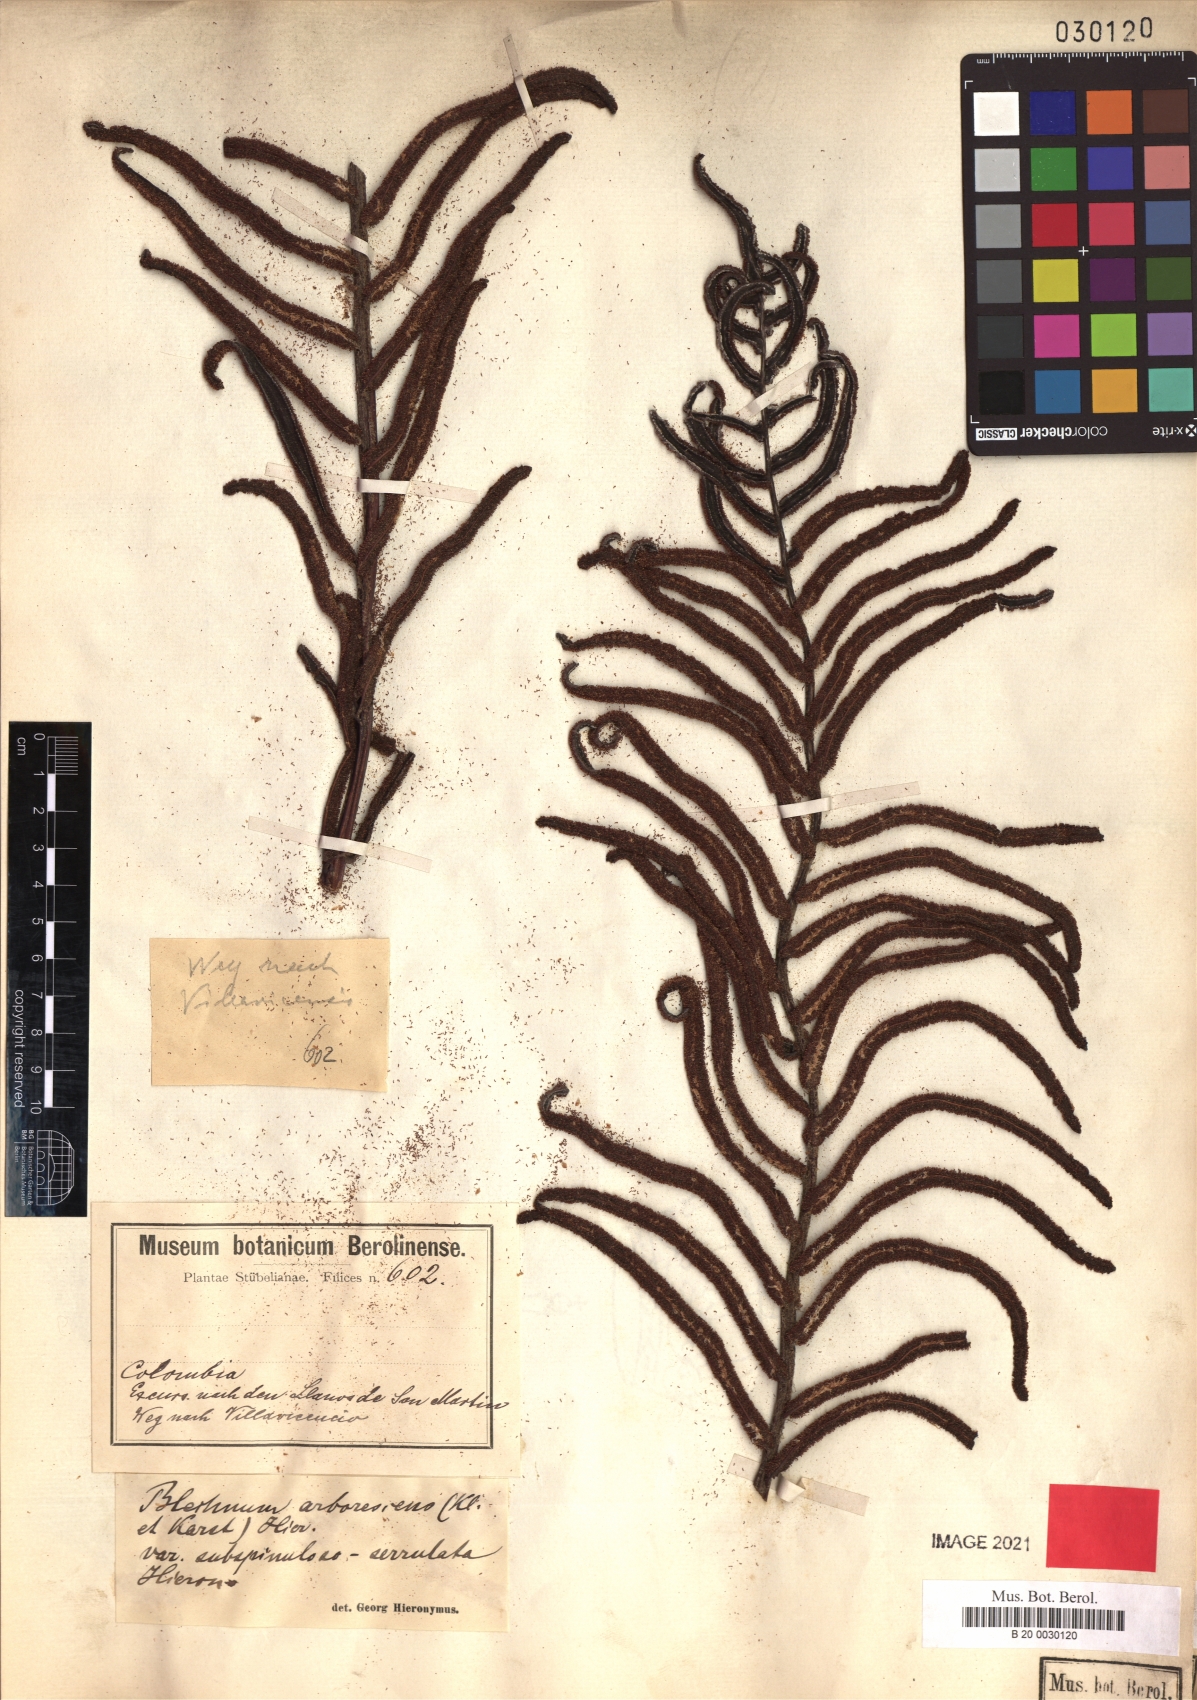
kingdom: Plantae
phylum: Tracheophyta
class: Polypodiopsida
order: Polypodiales
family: Blechnaceae
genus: Parablechnum
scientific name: Parablechnum cordatum
